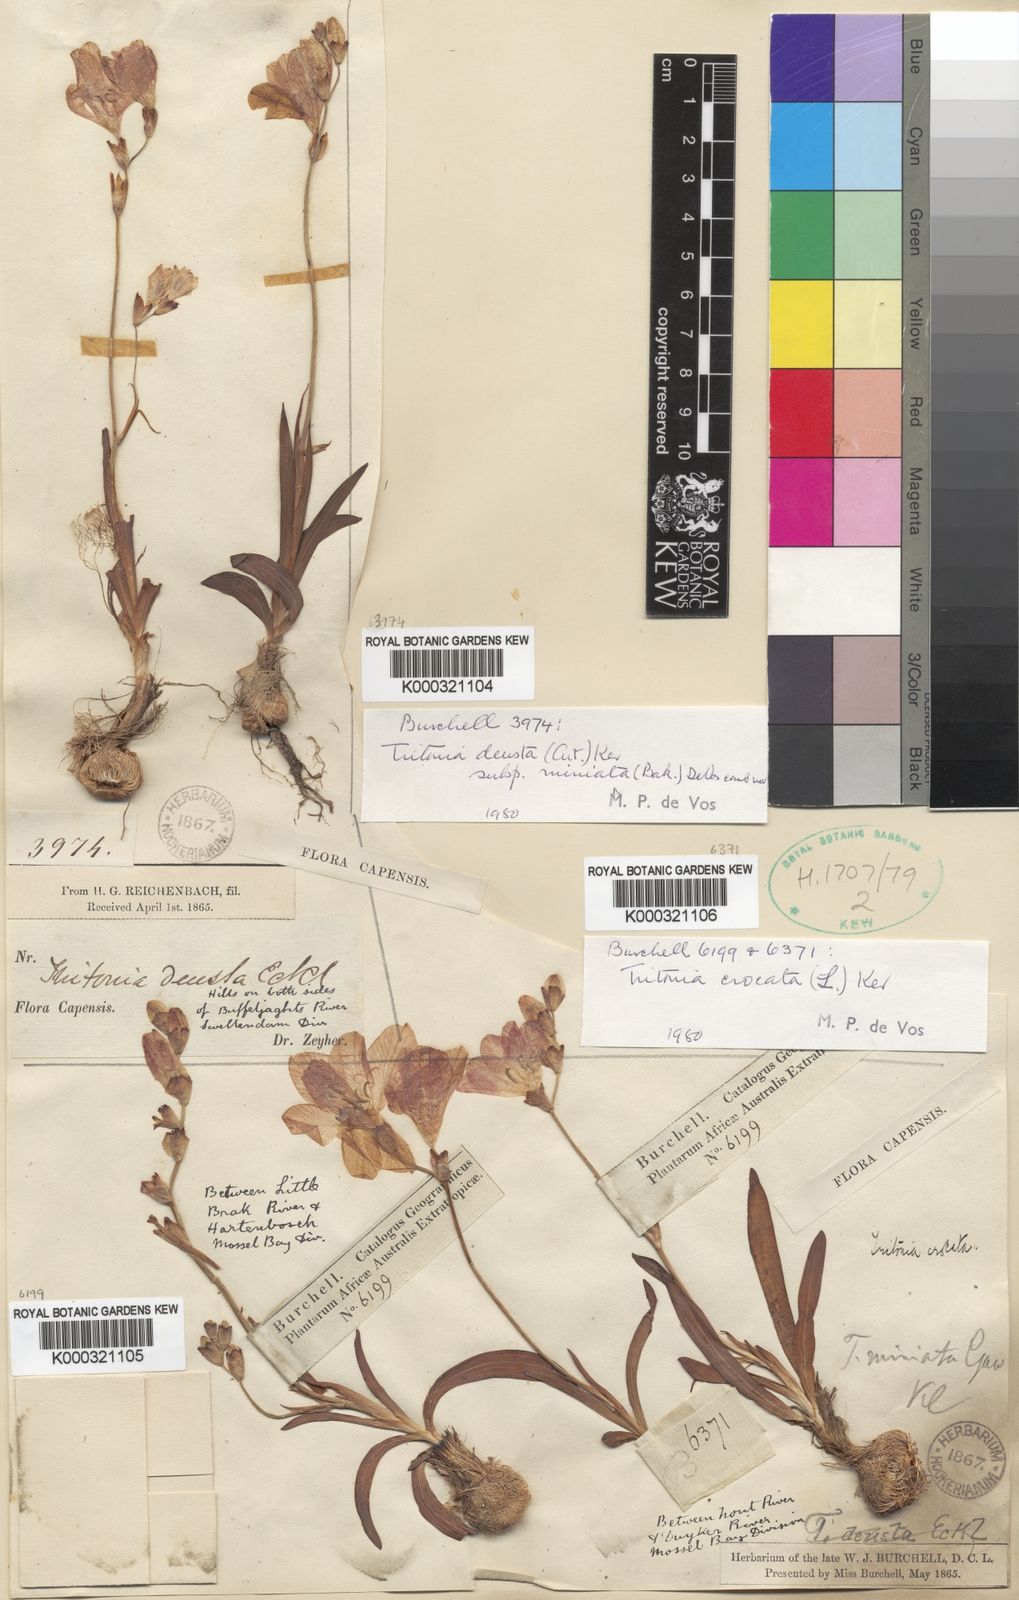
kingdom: Plantae
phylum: Tracheophyta
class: Liliopsida
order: Asparagales
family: Iridaceae
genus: Tritonia
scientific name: Tritonia crocata
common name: Flame-freesia
